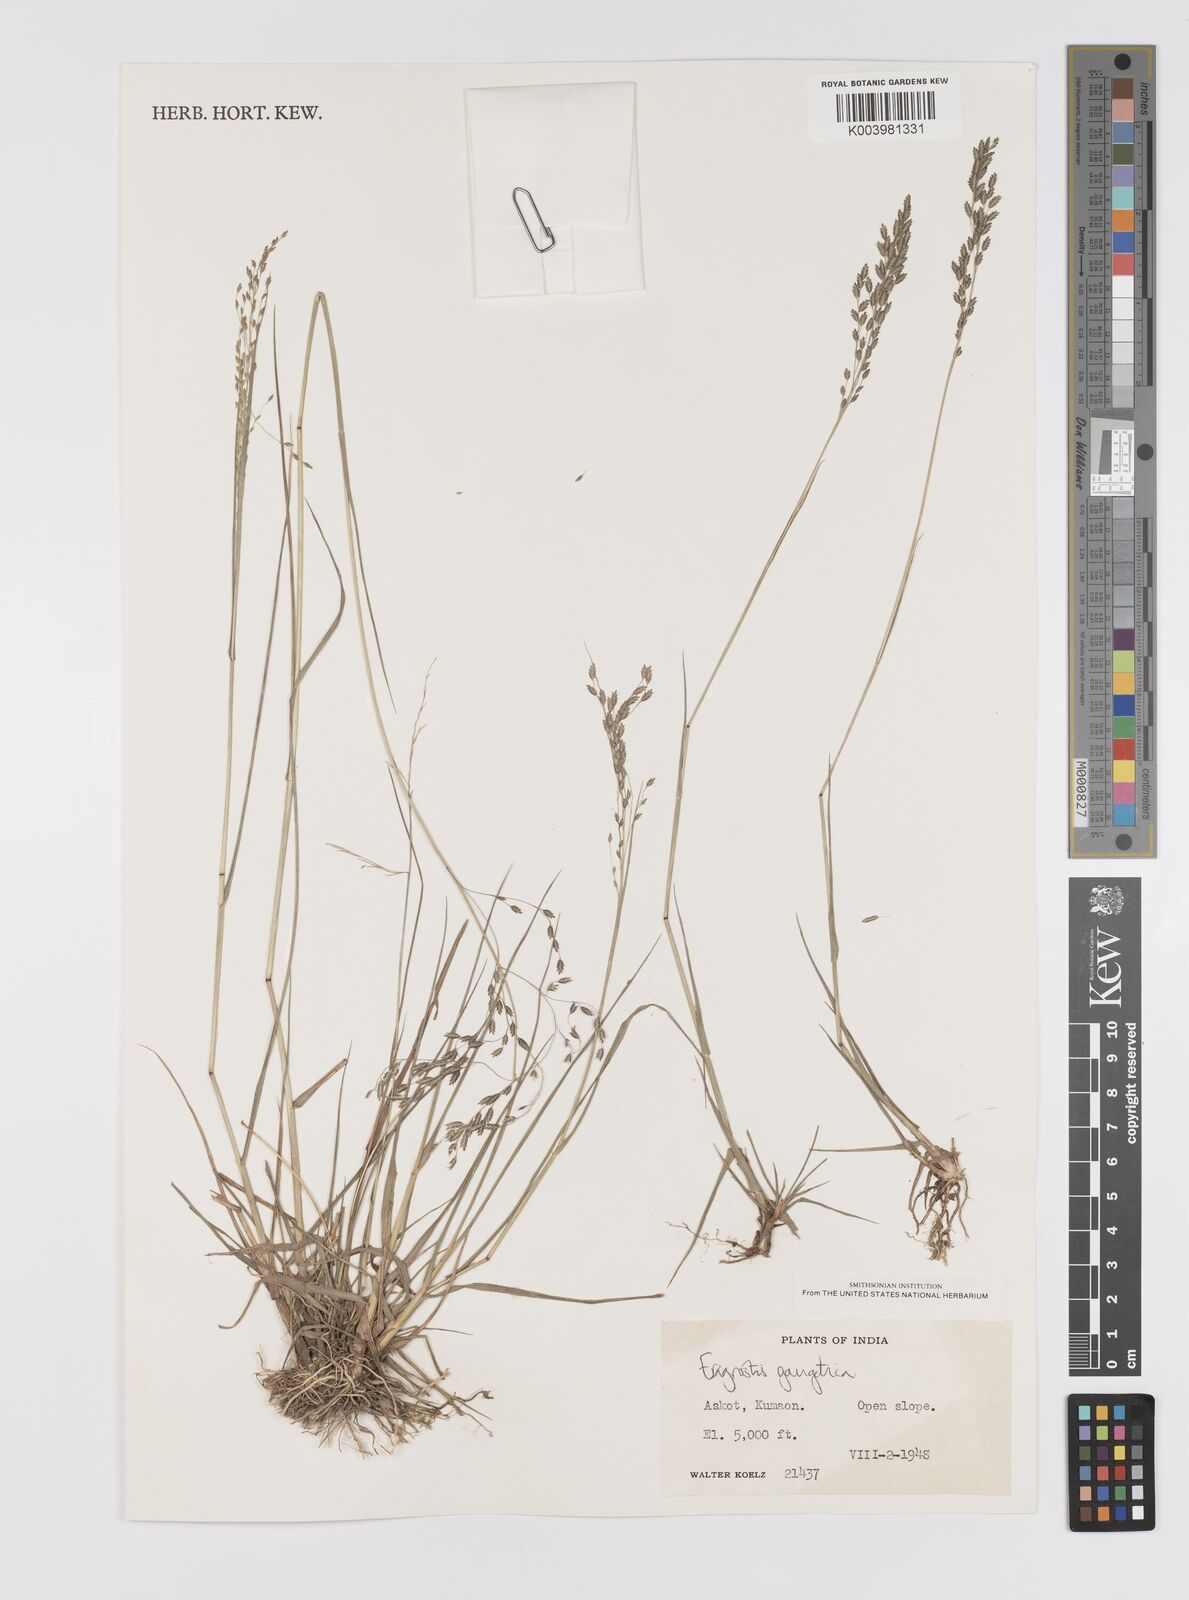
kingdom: Plantae
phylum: Tracheophyta
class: Liliopsida
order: Poales
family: Poaceae
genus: Eragrostis
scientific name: Eragrostis gangetica
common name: Slimflower lovegrass
